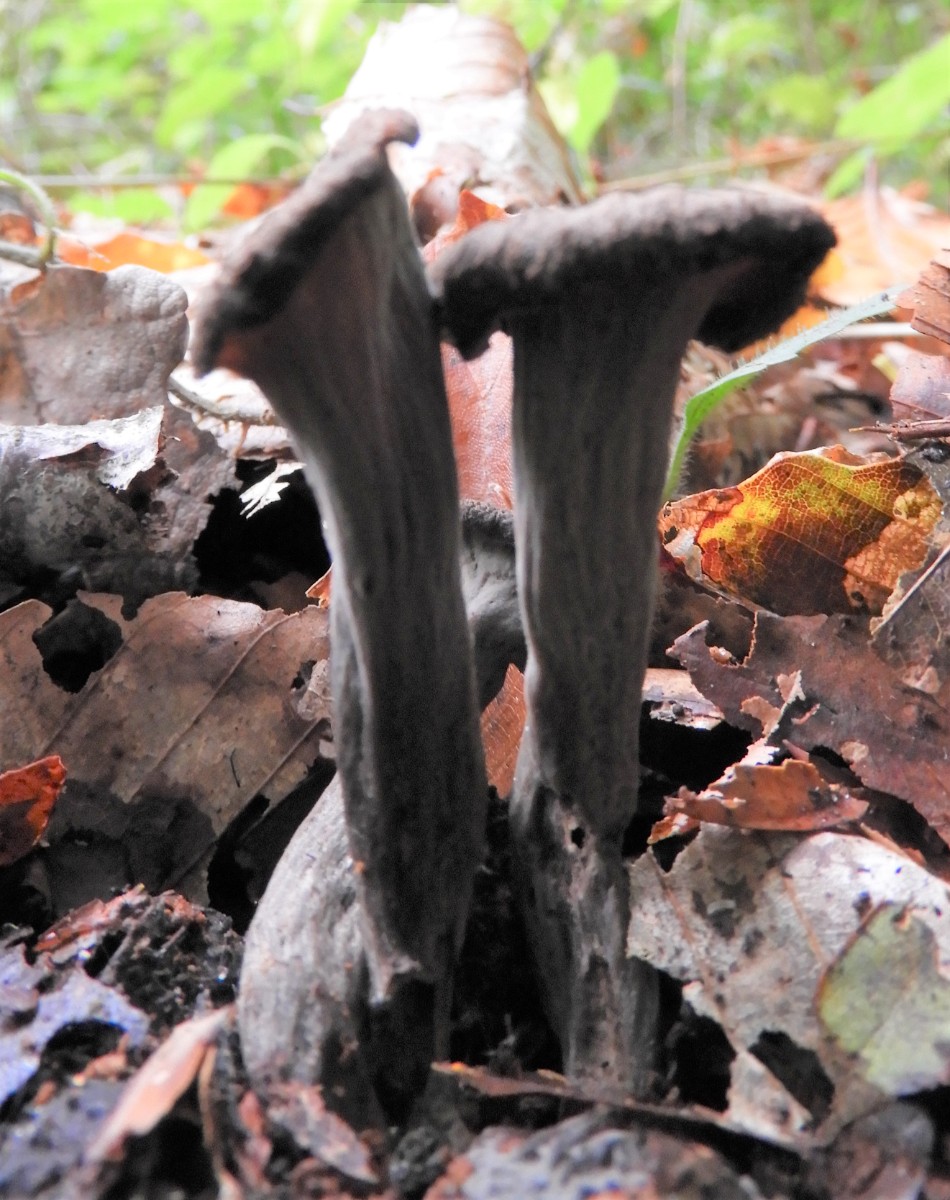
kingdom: Fungi
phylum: Basidiomycota
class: Agaricomycetes
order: Cantharellales
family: Hydnaceae
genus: Craterellus
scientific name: Craterellus cornucopioides
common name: trompetsvamp
